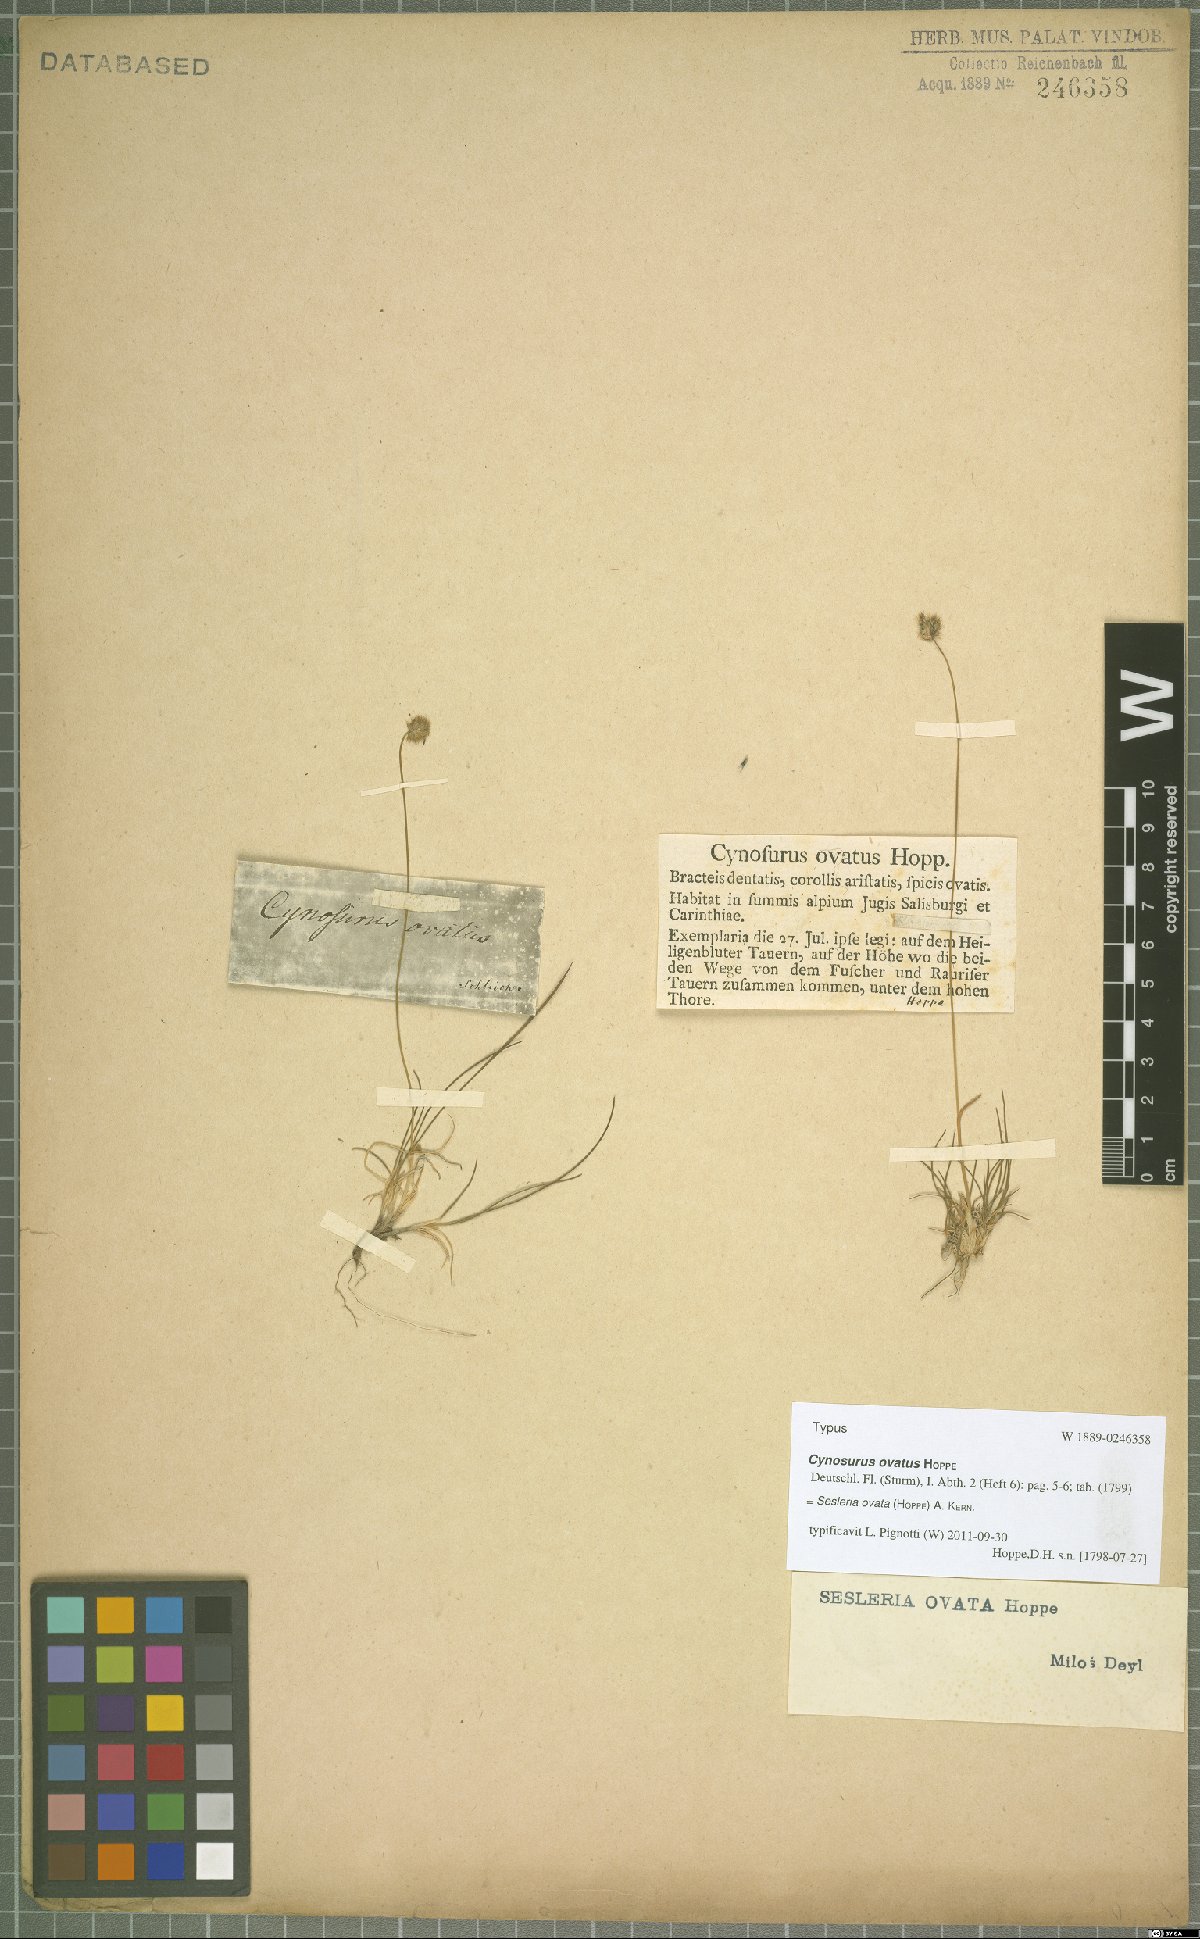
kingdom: Plantae
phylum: Tracheophyta
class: Liliopsida
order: Poales
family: Poaceae
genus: Psilathera
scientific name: Psilathera ovata
